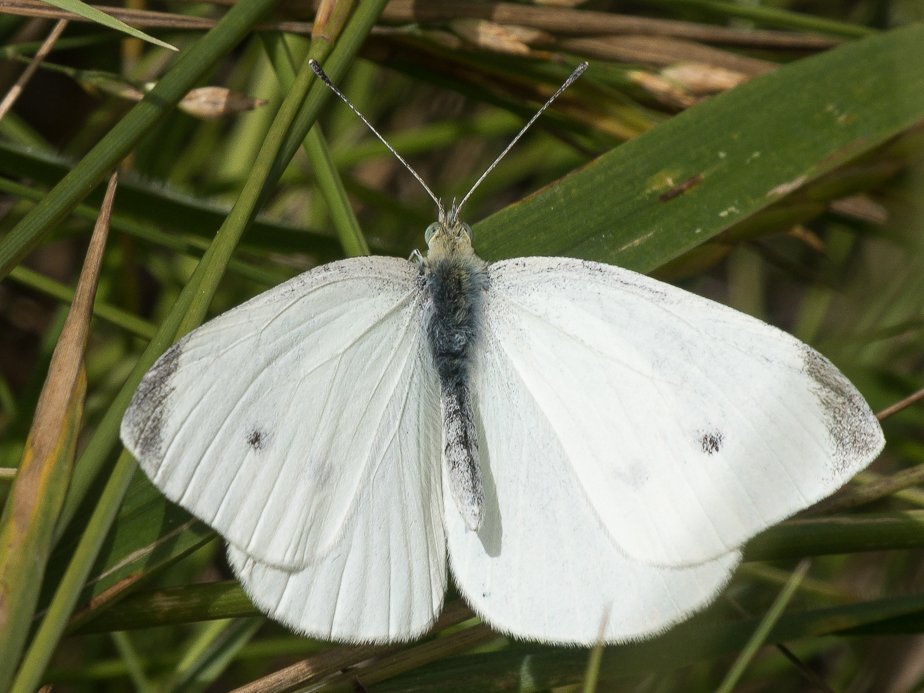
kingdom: Animalia
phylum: Arthropoda
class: Insecta
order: Lepidoptera
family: Pieridae
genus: Pieris
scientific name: Pieris rapae
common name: Cabbage White
